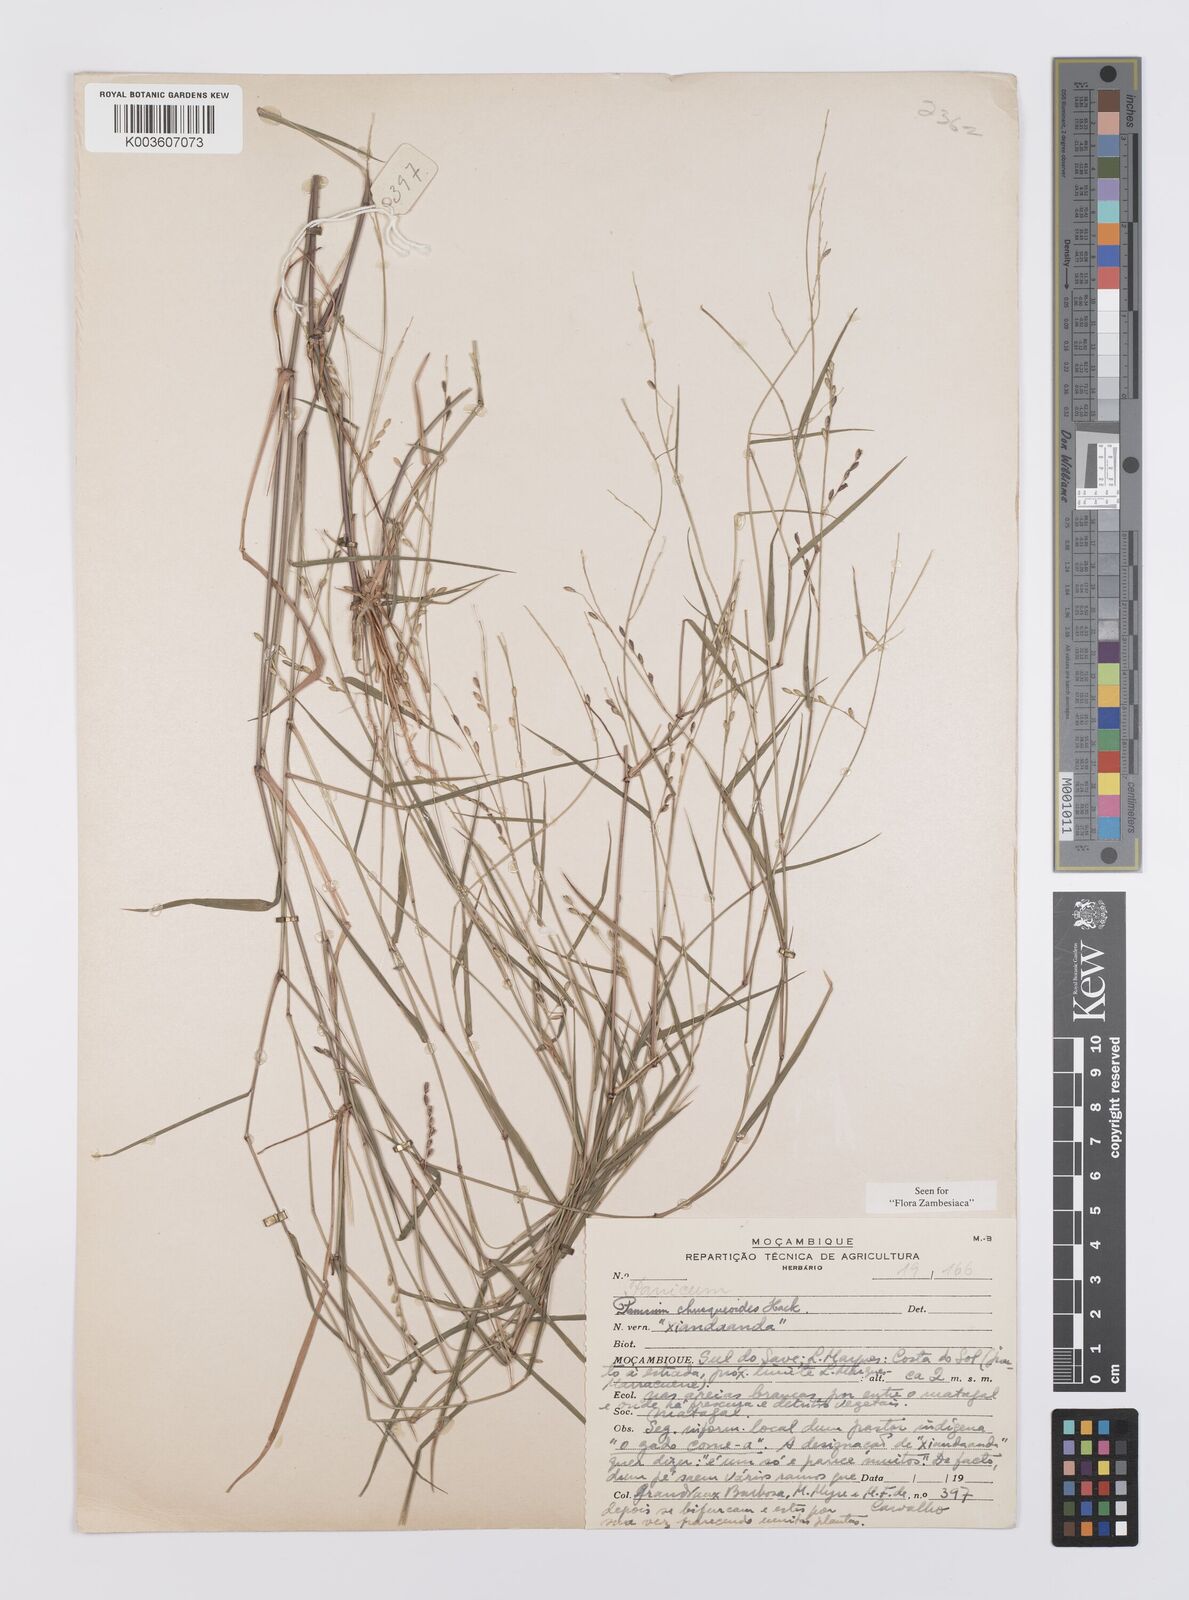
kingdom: Plantae
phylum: Tracheophyta
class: Liliopsida
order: Poales
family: Poaceae
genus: Urochloa
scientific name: Urochloa chusqueoides
